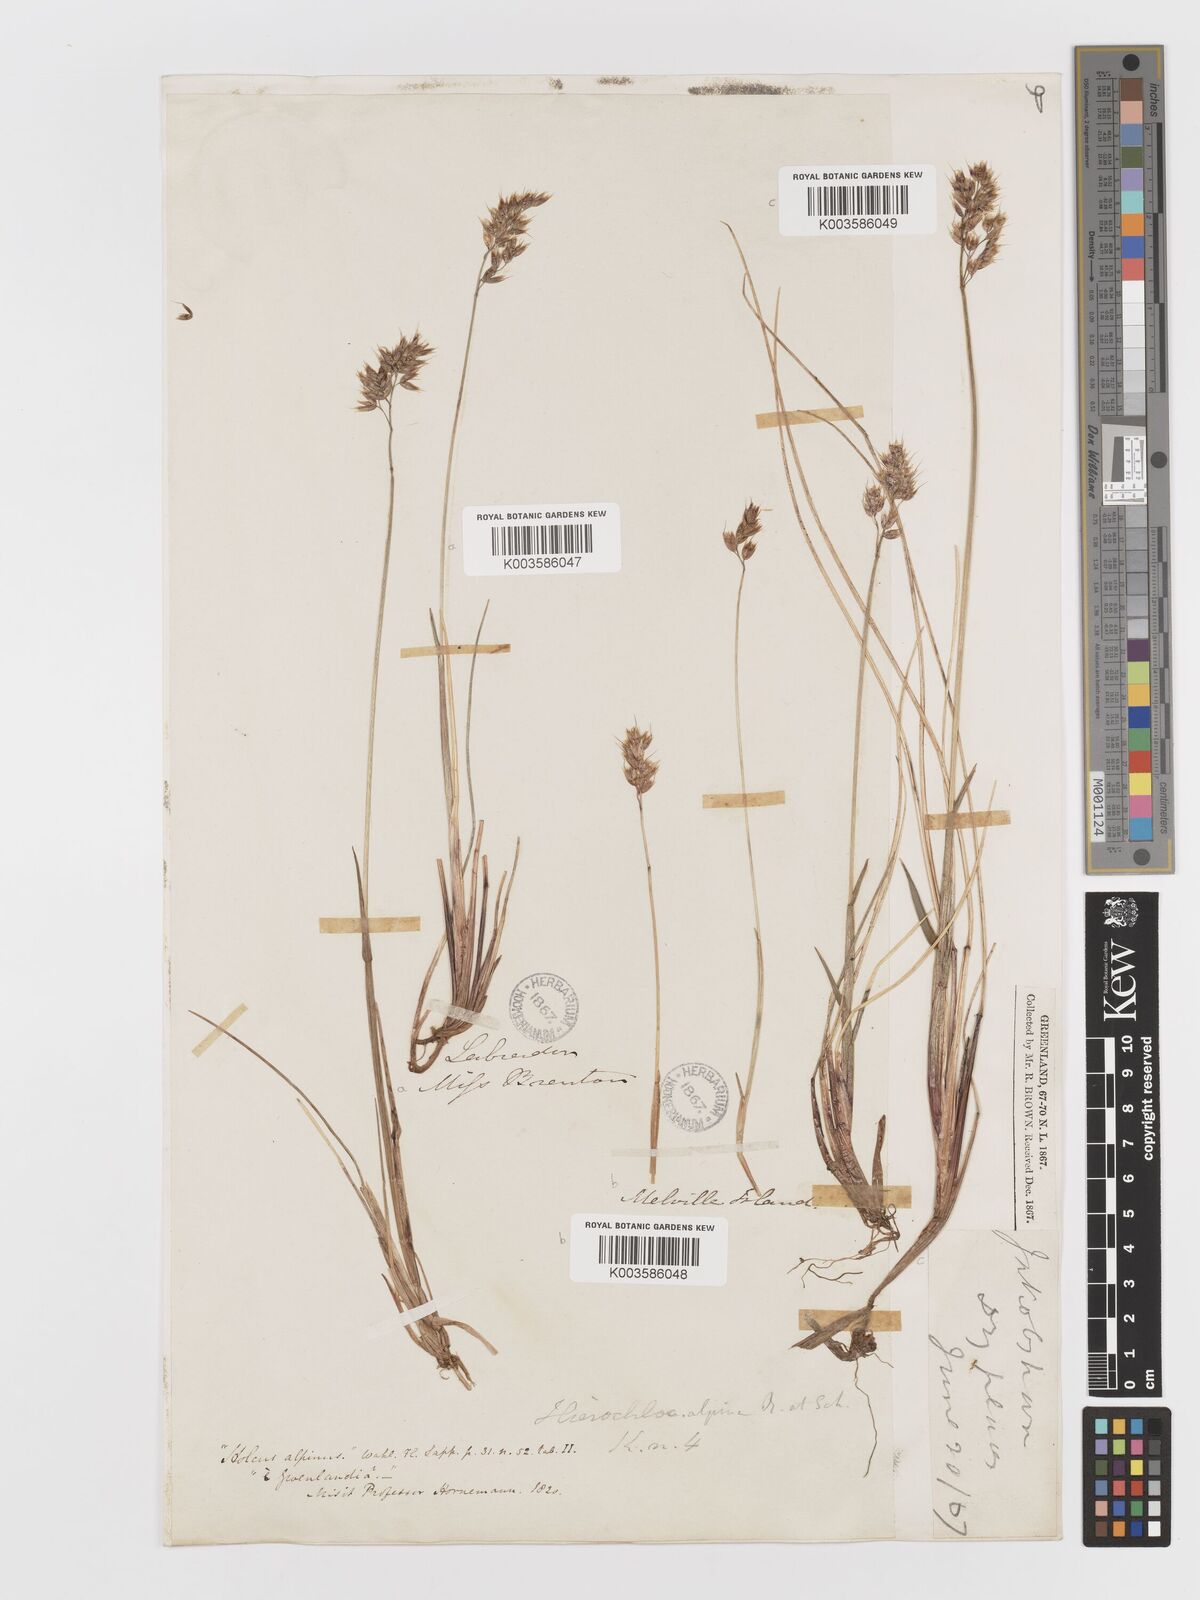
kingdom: Plantae
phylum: Tracheophyta
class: Liliopsida
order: Poales
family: Poaceae
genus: Anthoxanthum
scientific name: Anthoxanthum monticola
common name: Alpine sweetgrass
